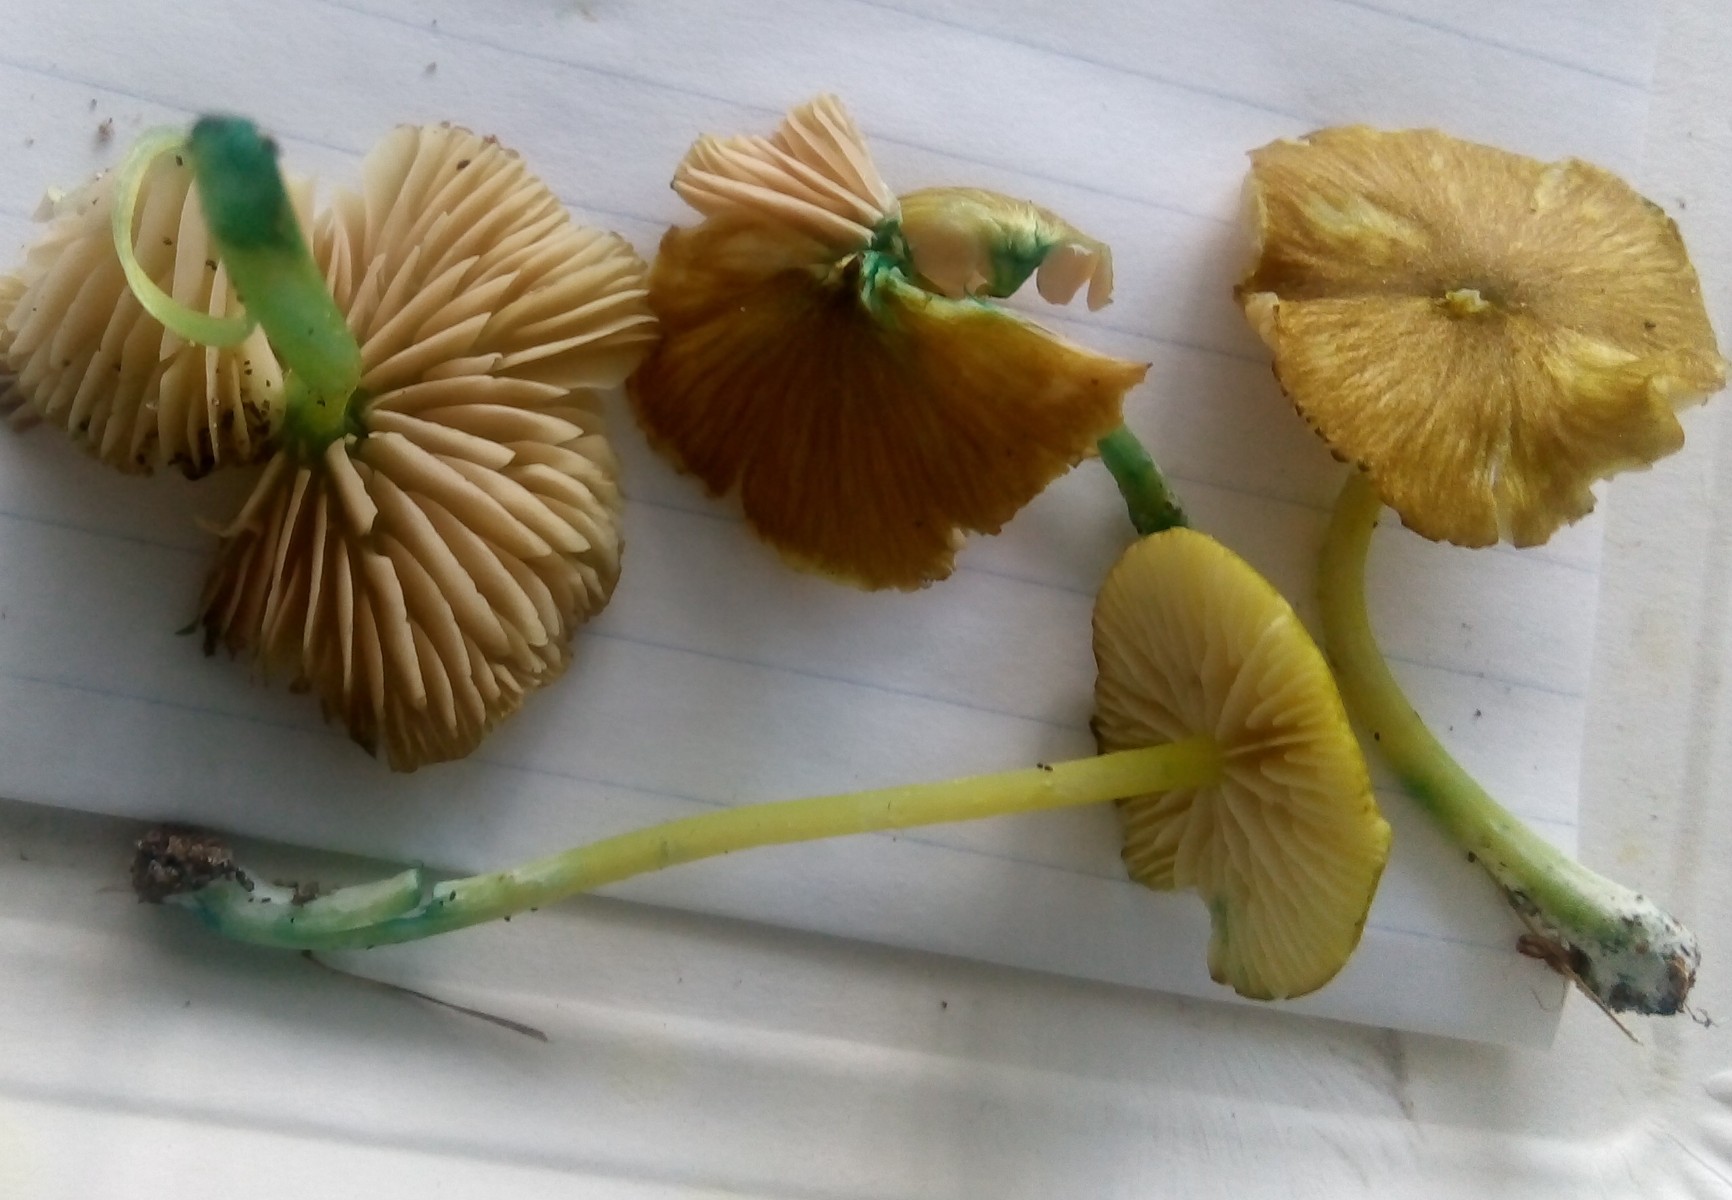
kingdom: Fungi
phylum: Basidiomycota
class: Agaricomycetes
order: Agaricales
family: Entolomataceae
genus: Entoloma
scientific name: Entoloma incanum
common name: grøngul rødblad
